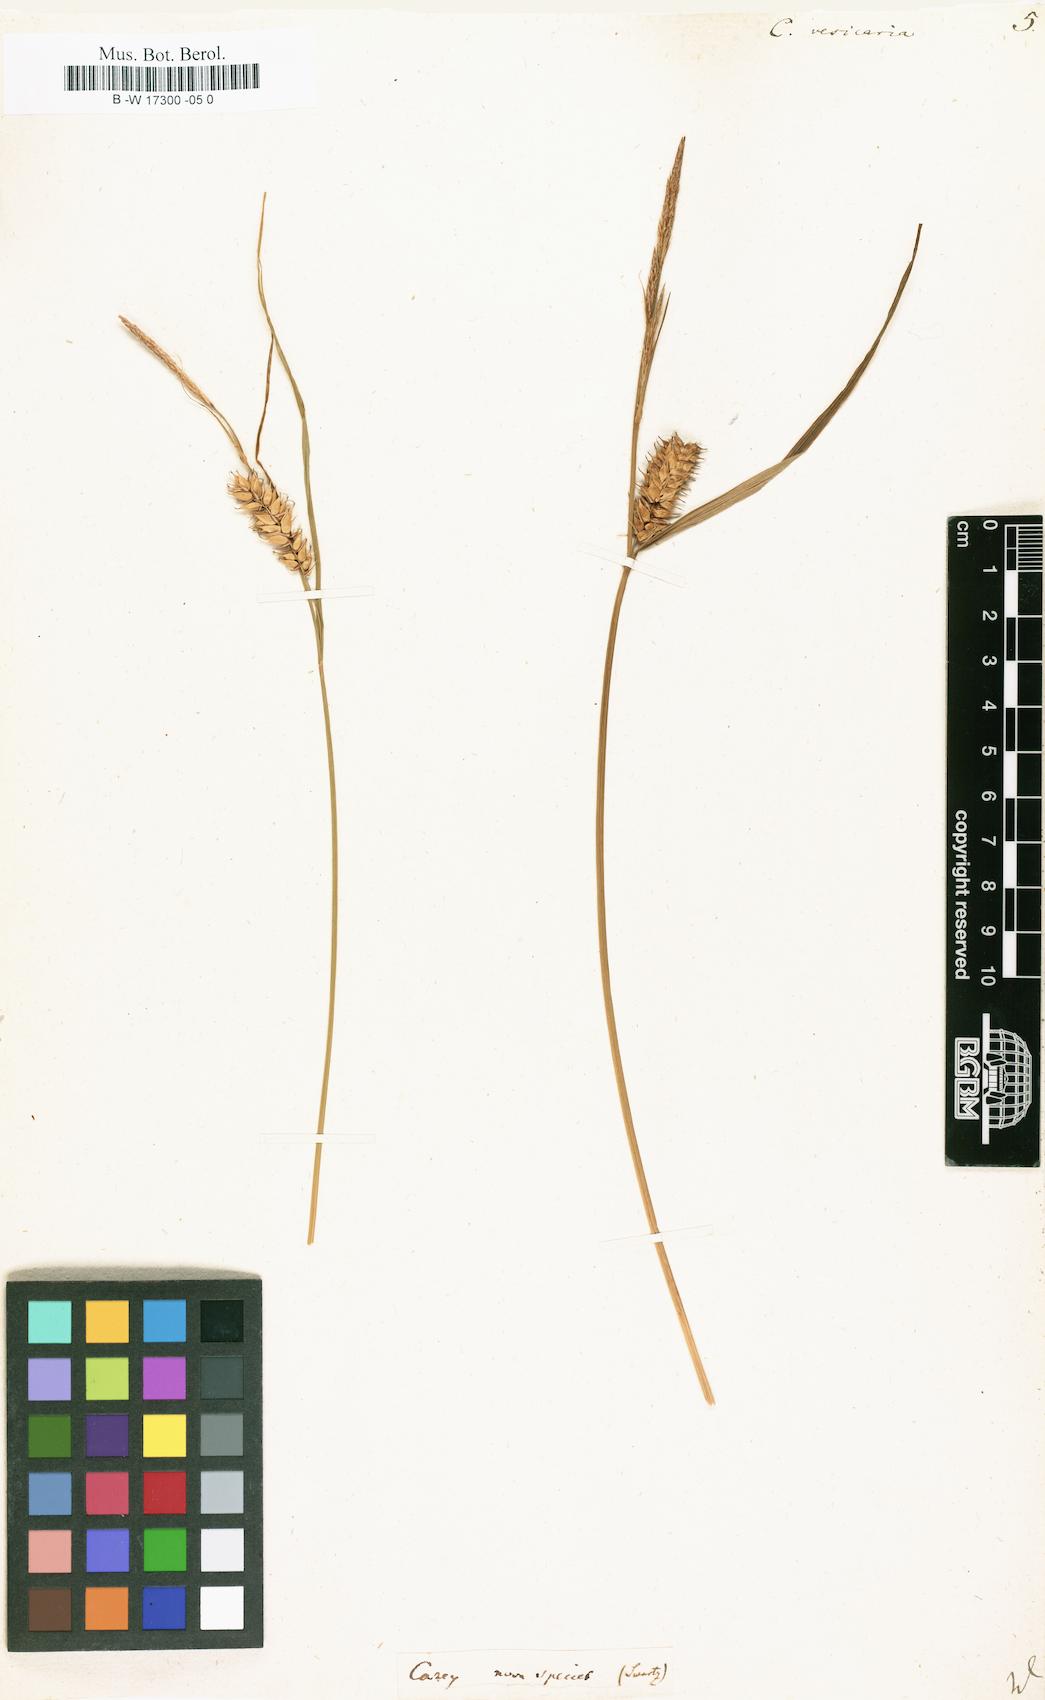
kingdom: Plantae
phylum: Tracheophyta
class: Liliopsida
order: Poales
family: Cyperaceae
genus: Carex
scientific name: Carex vesicaria
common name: Bladder-sedge
